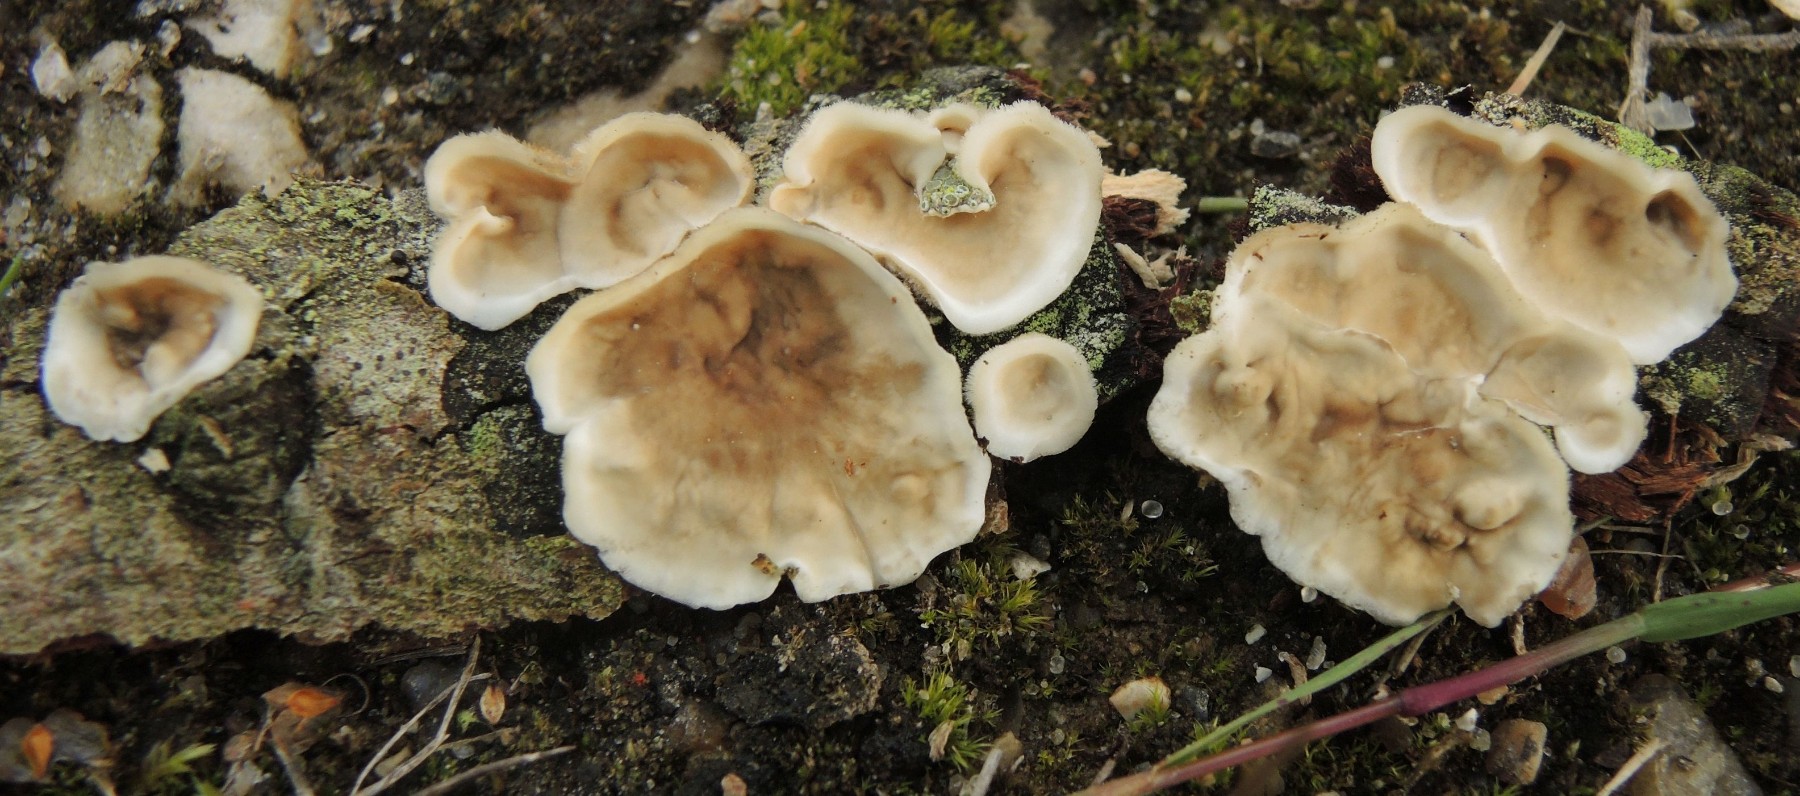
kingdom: Fungi
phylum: Basidiomycota
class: Agaricomycetes
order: Russulales
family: Stereaceae
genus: Stereum
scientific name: Stereum complicatum
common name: liden lædersvamp
